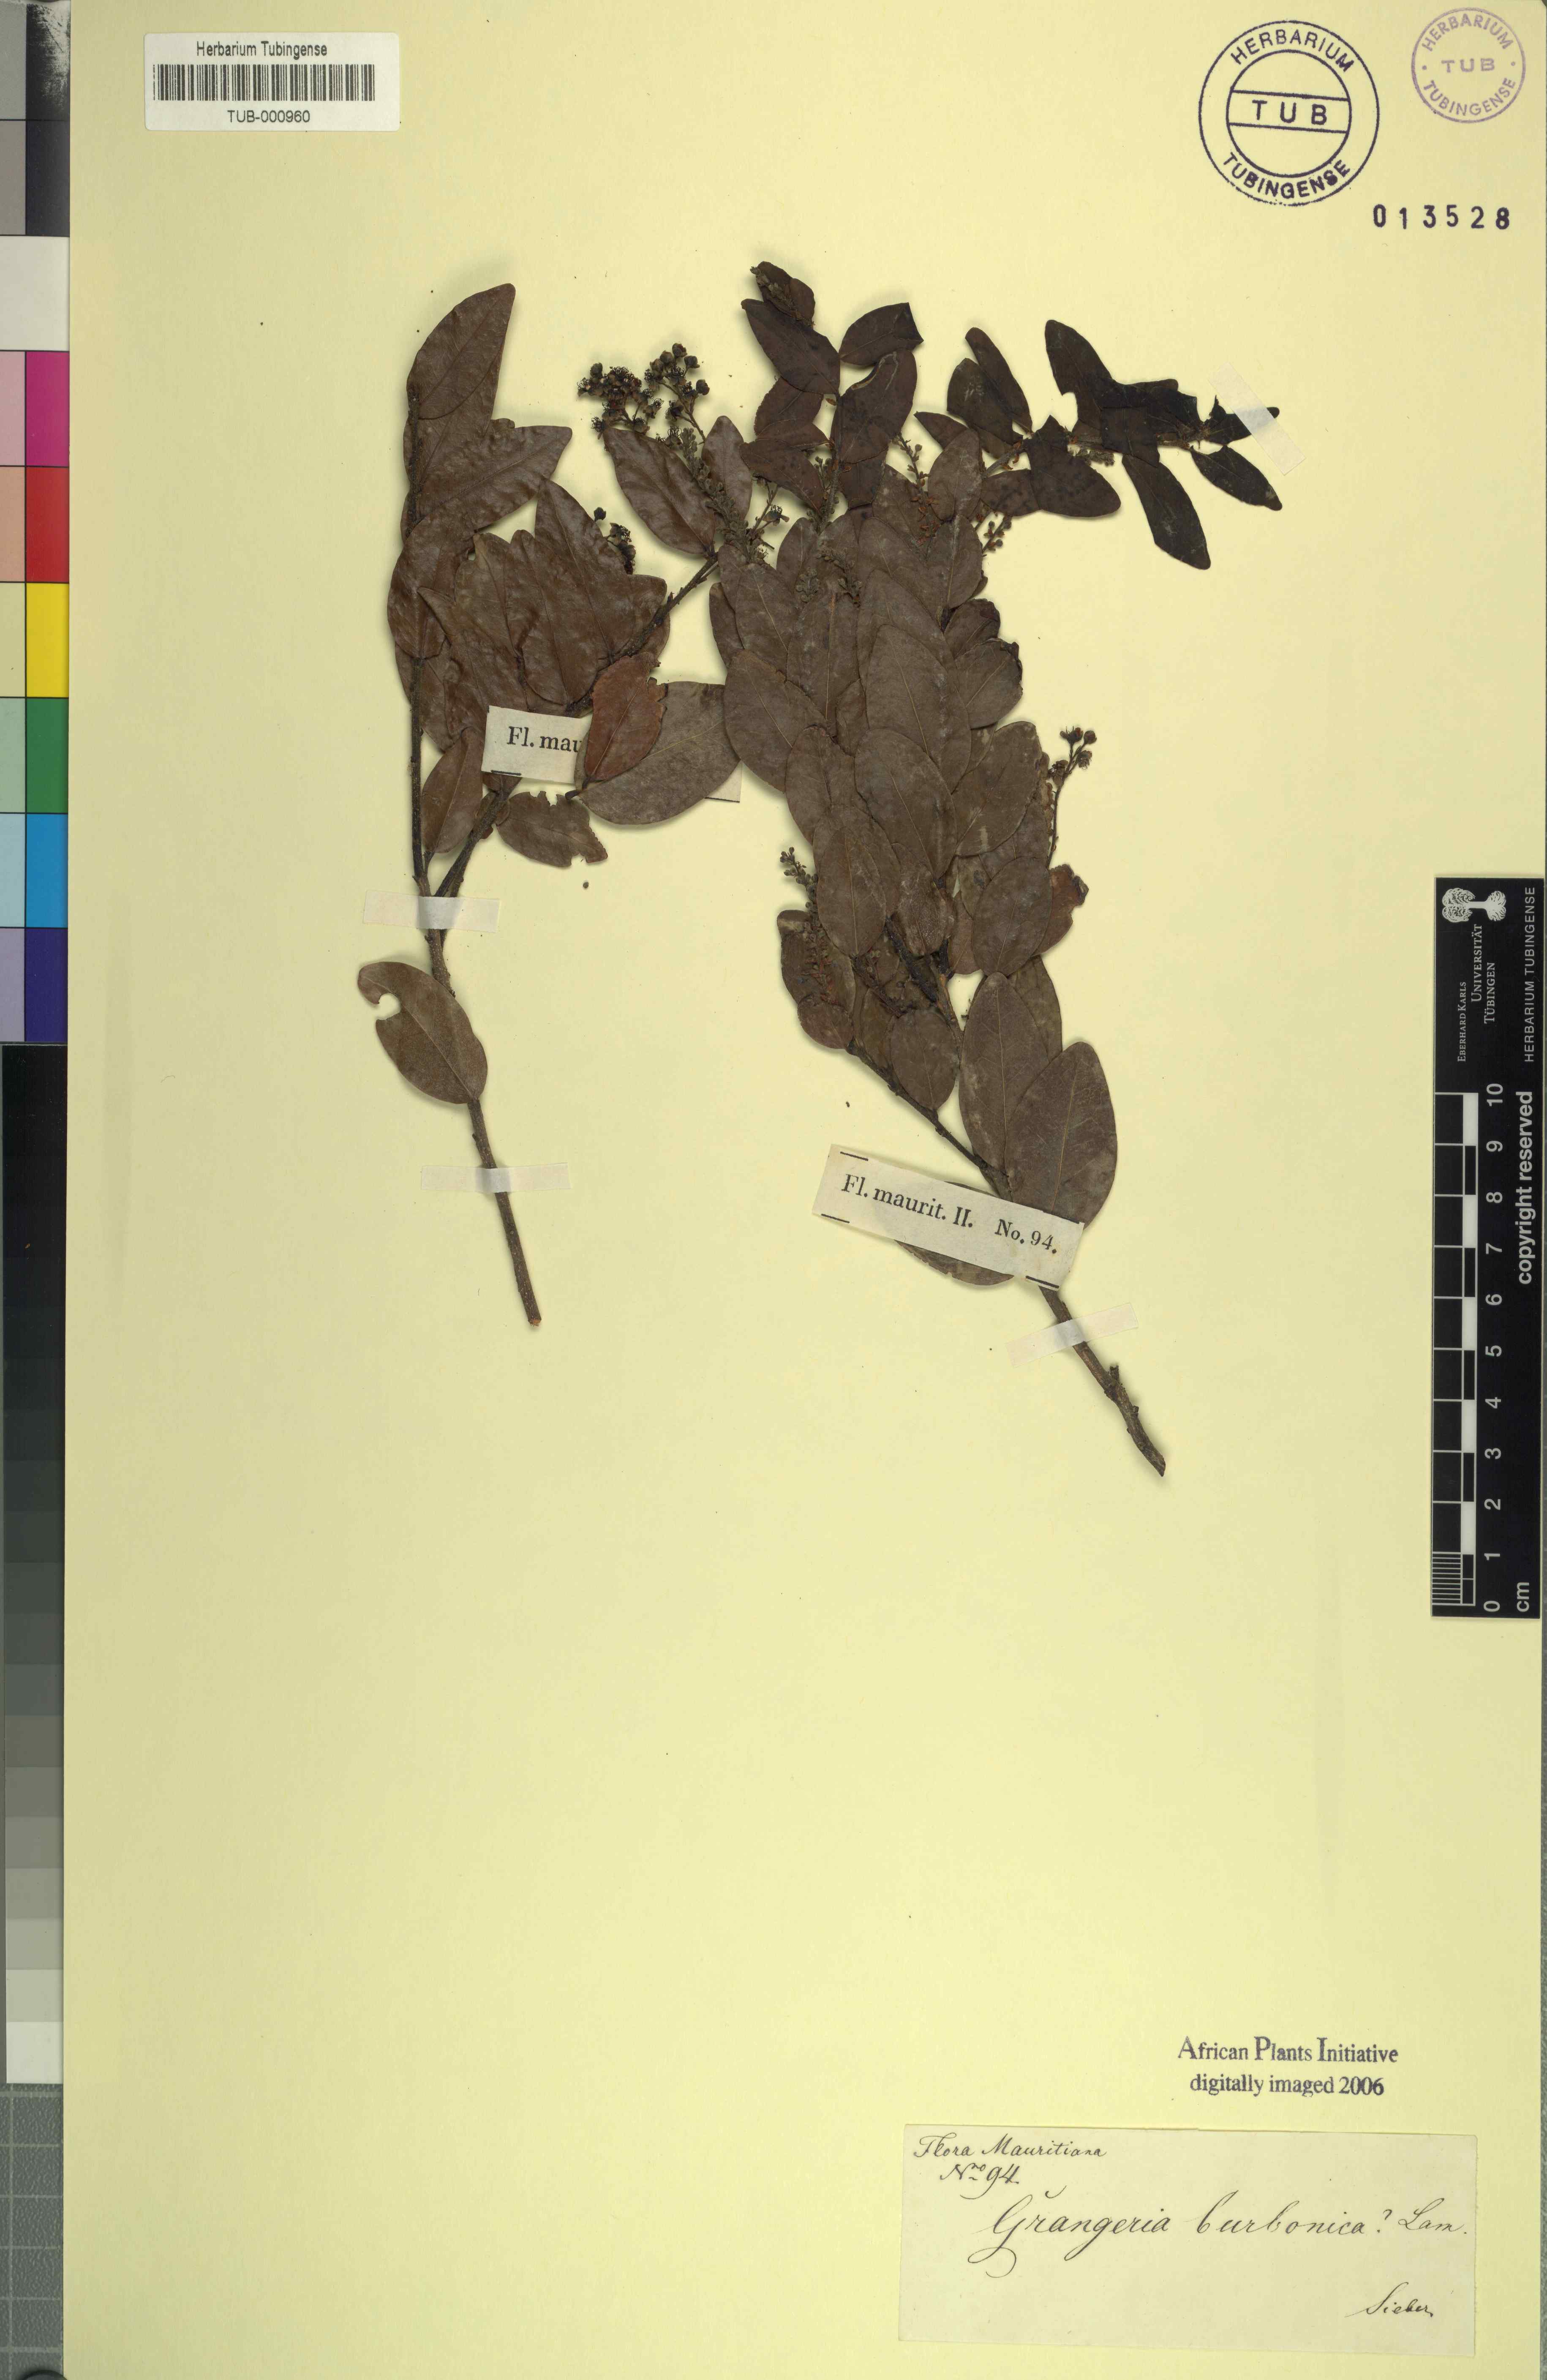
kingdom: Plantae
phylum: Tracheophyta
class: Magnoliopsida
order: Malpighiales
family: Chrysobalanaceae
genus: Grangeria
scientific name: Grangeria borbonica
